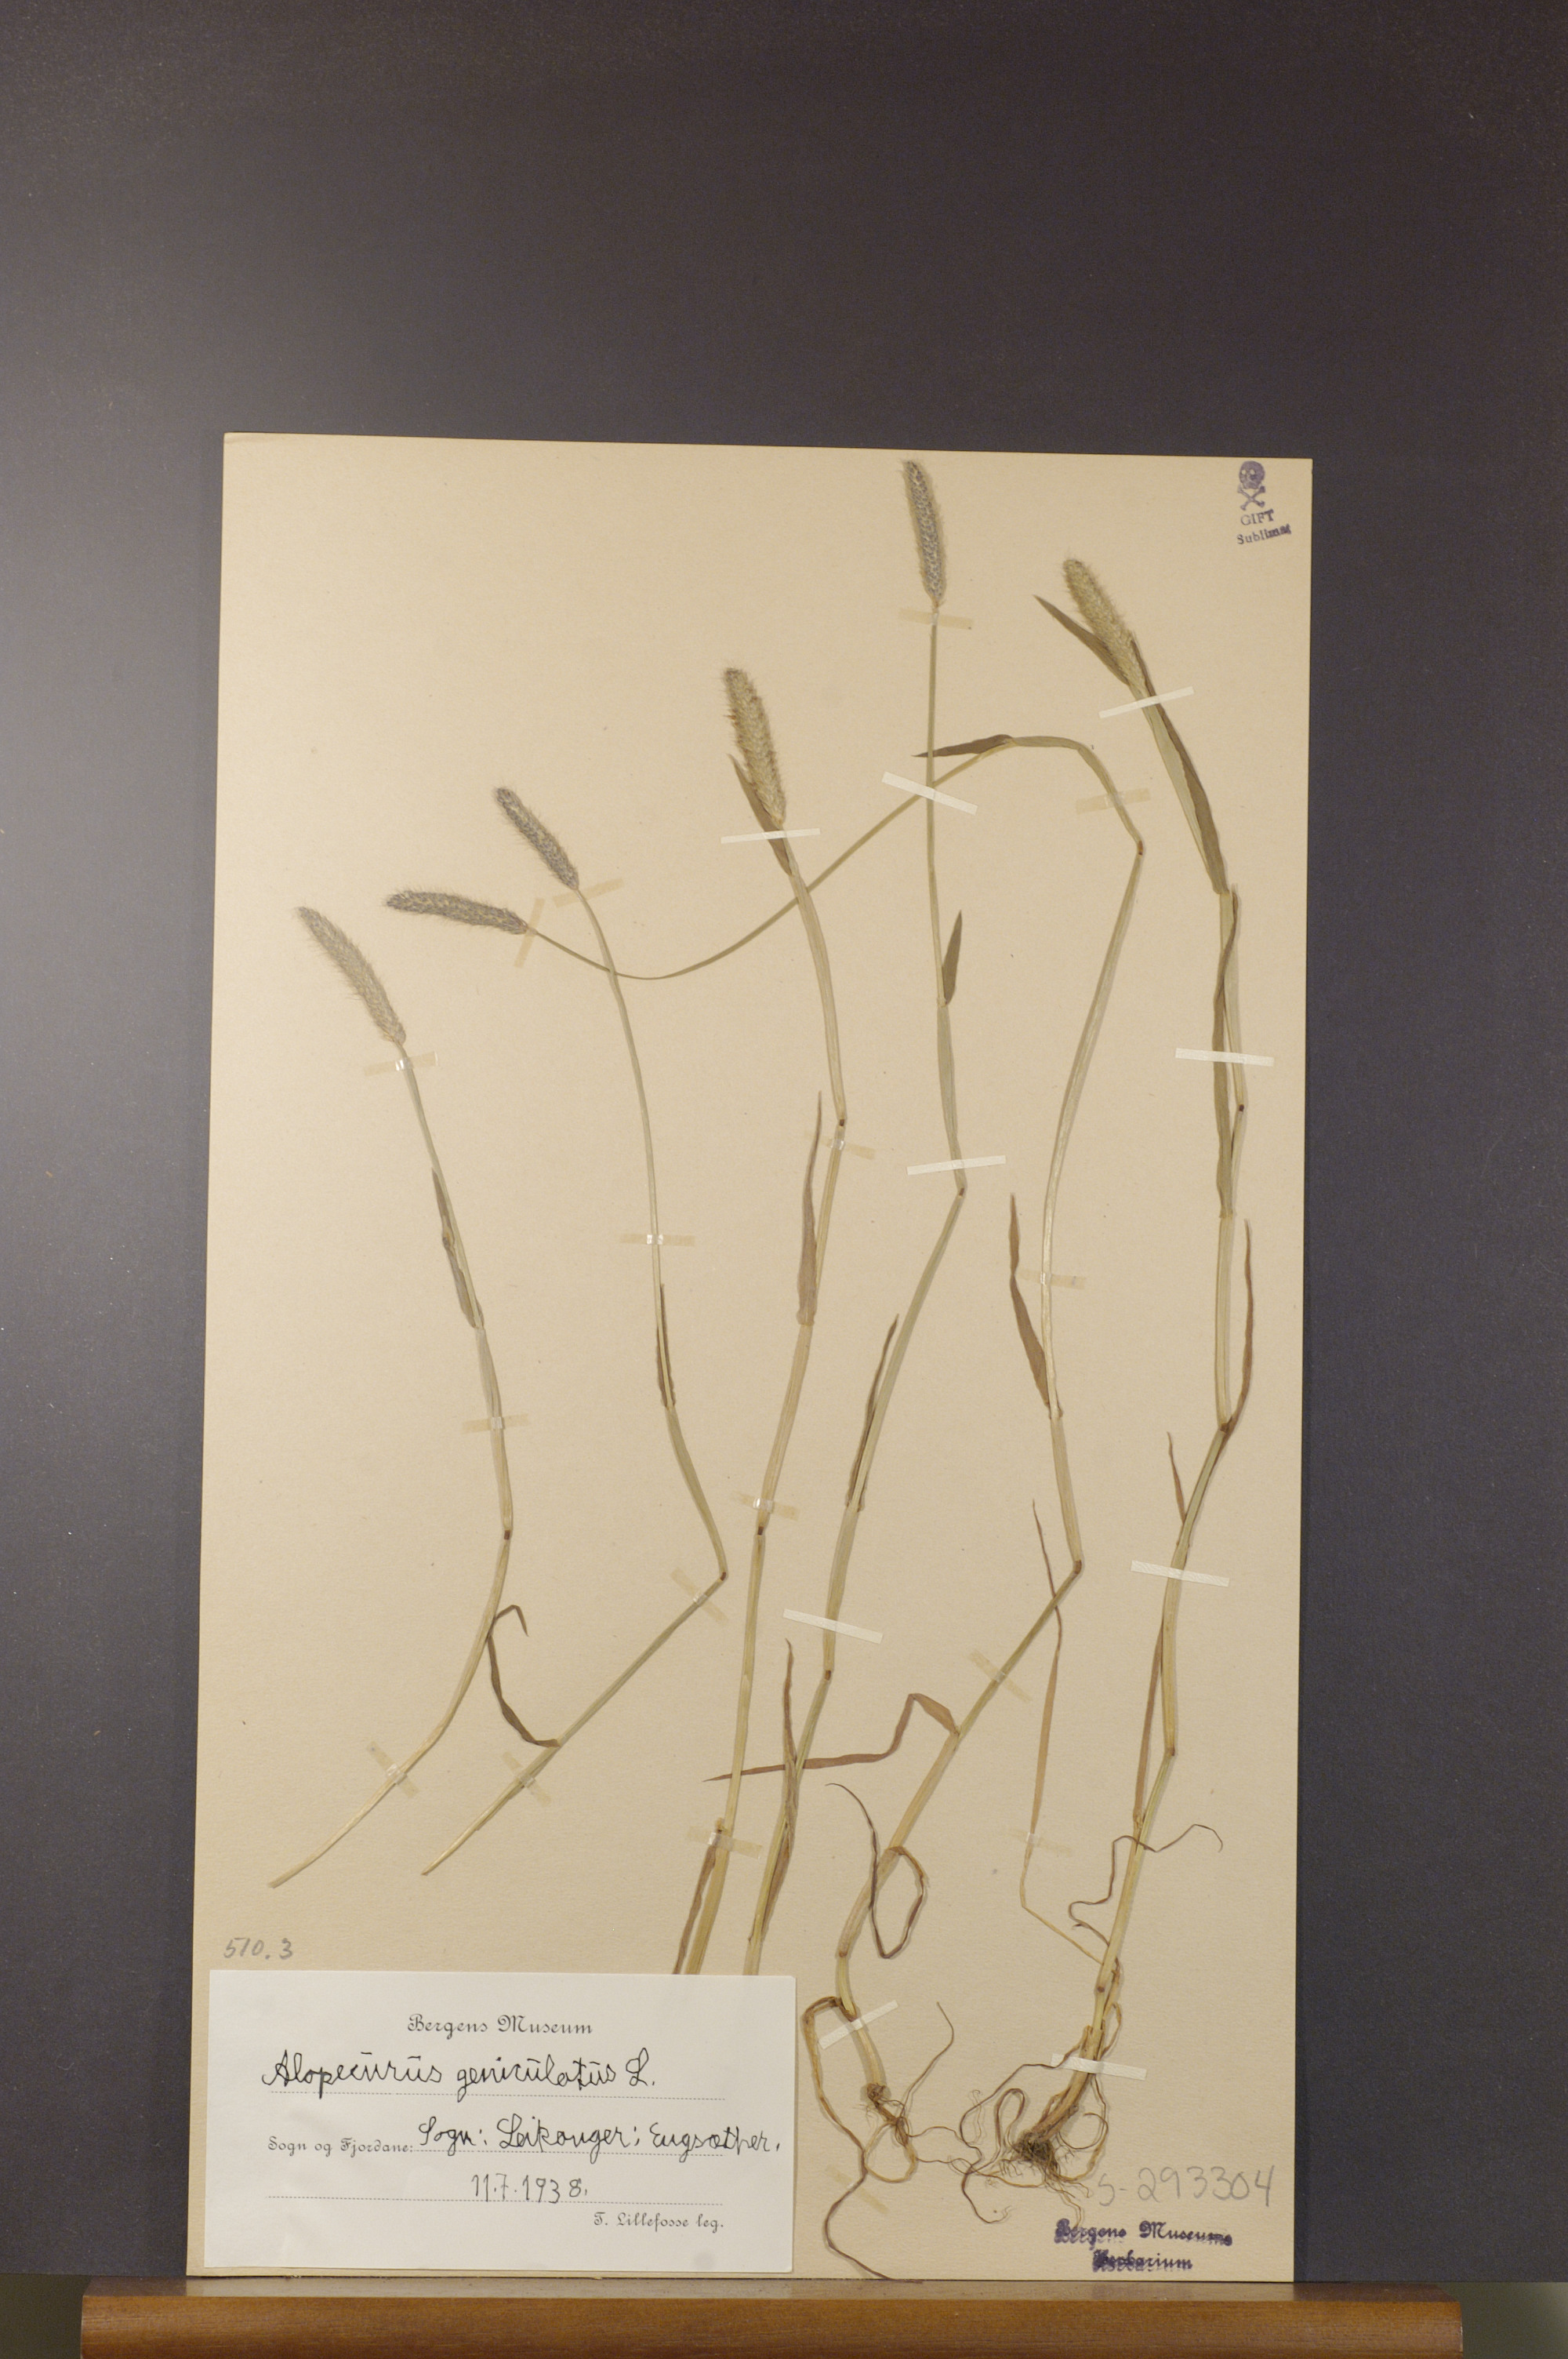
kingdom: Plantae
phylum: Tracheophyta
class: Liliopsida
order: Poales
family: Poaceae
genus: Alopecurus
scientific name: Alopecurus geniculatus
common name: Water foxtail
